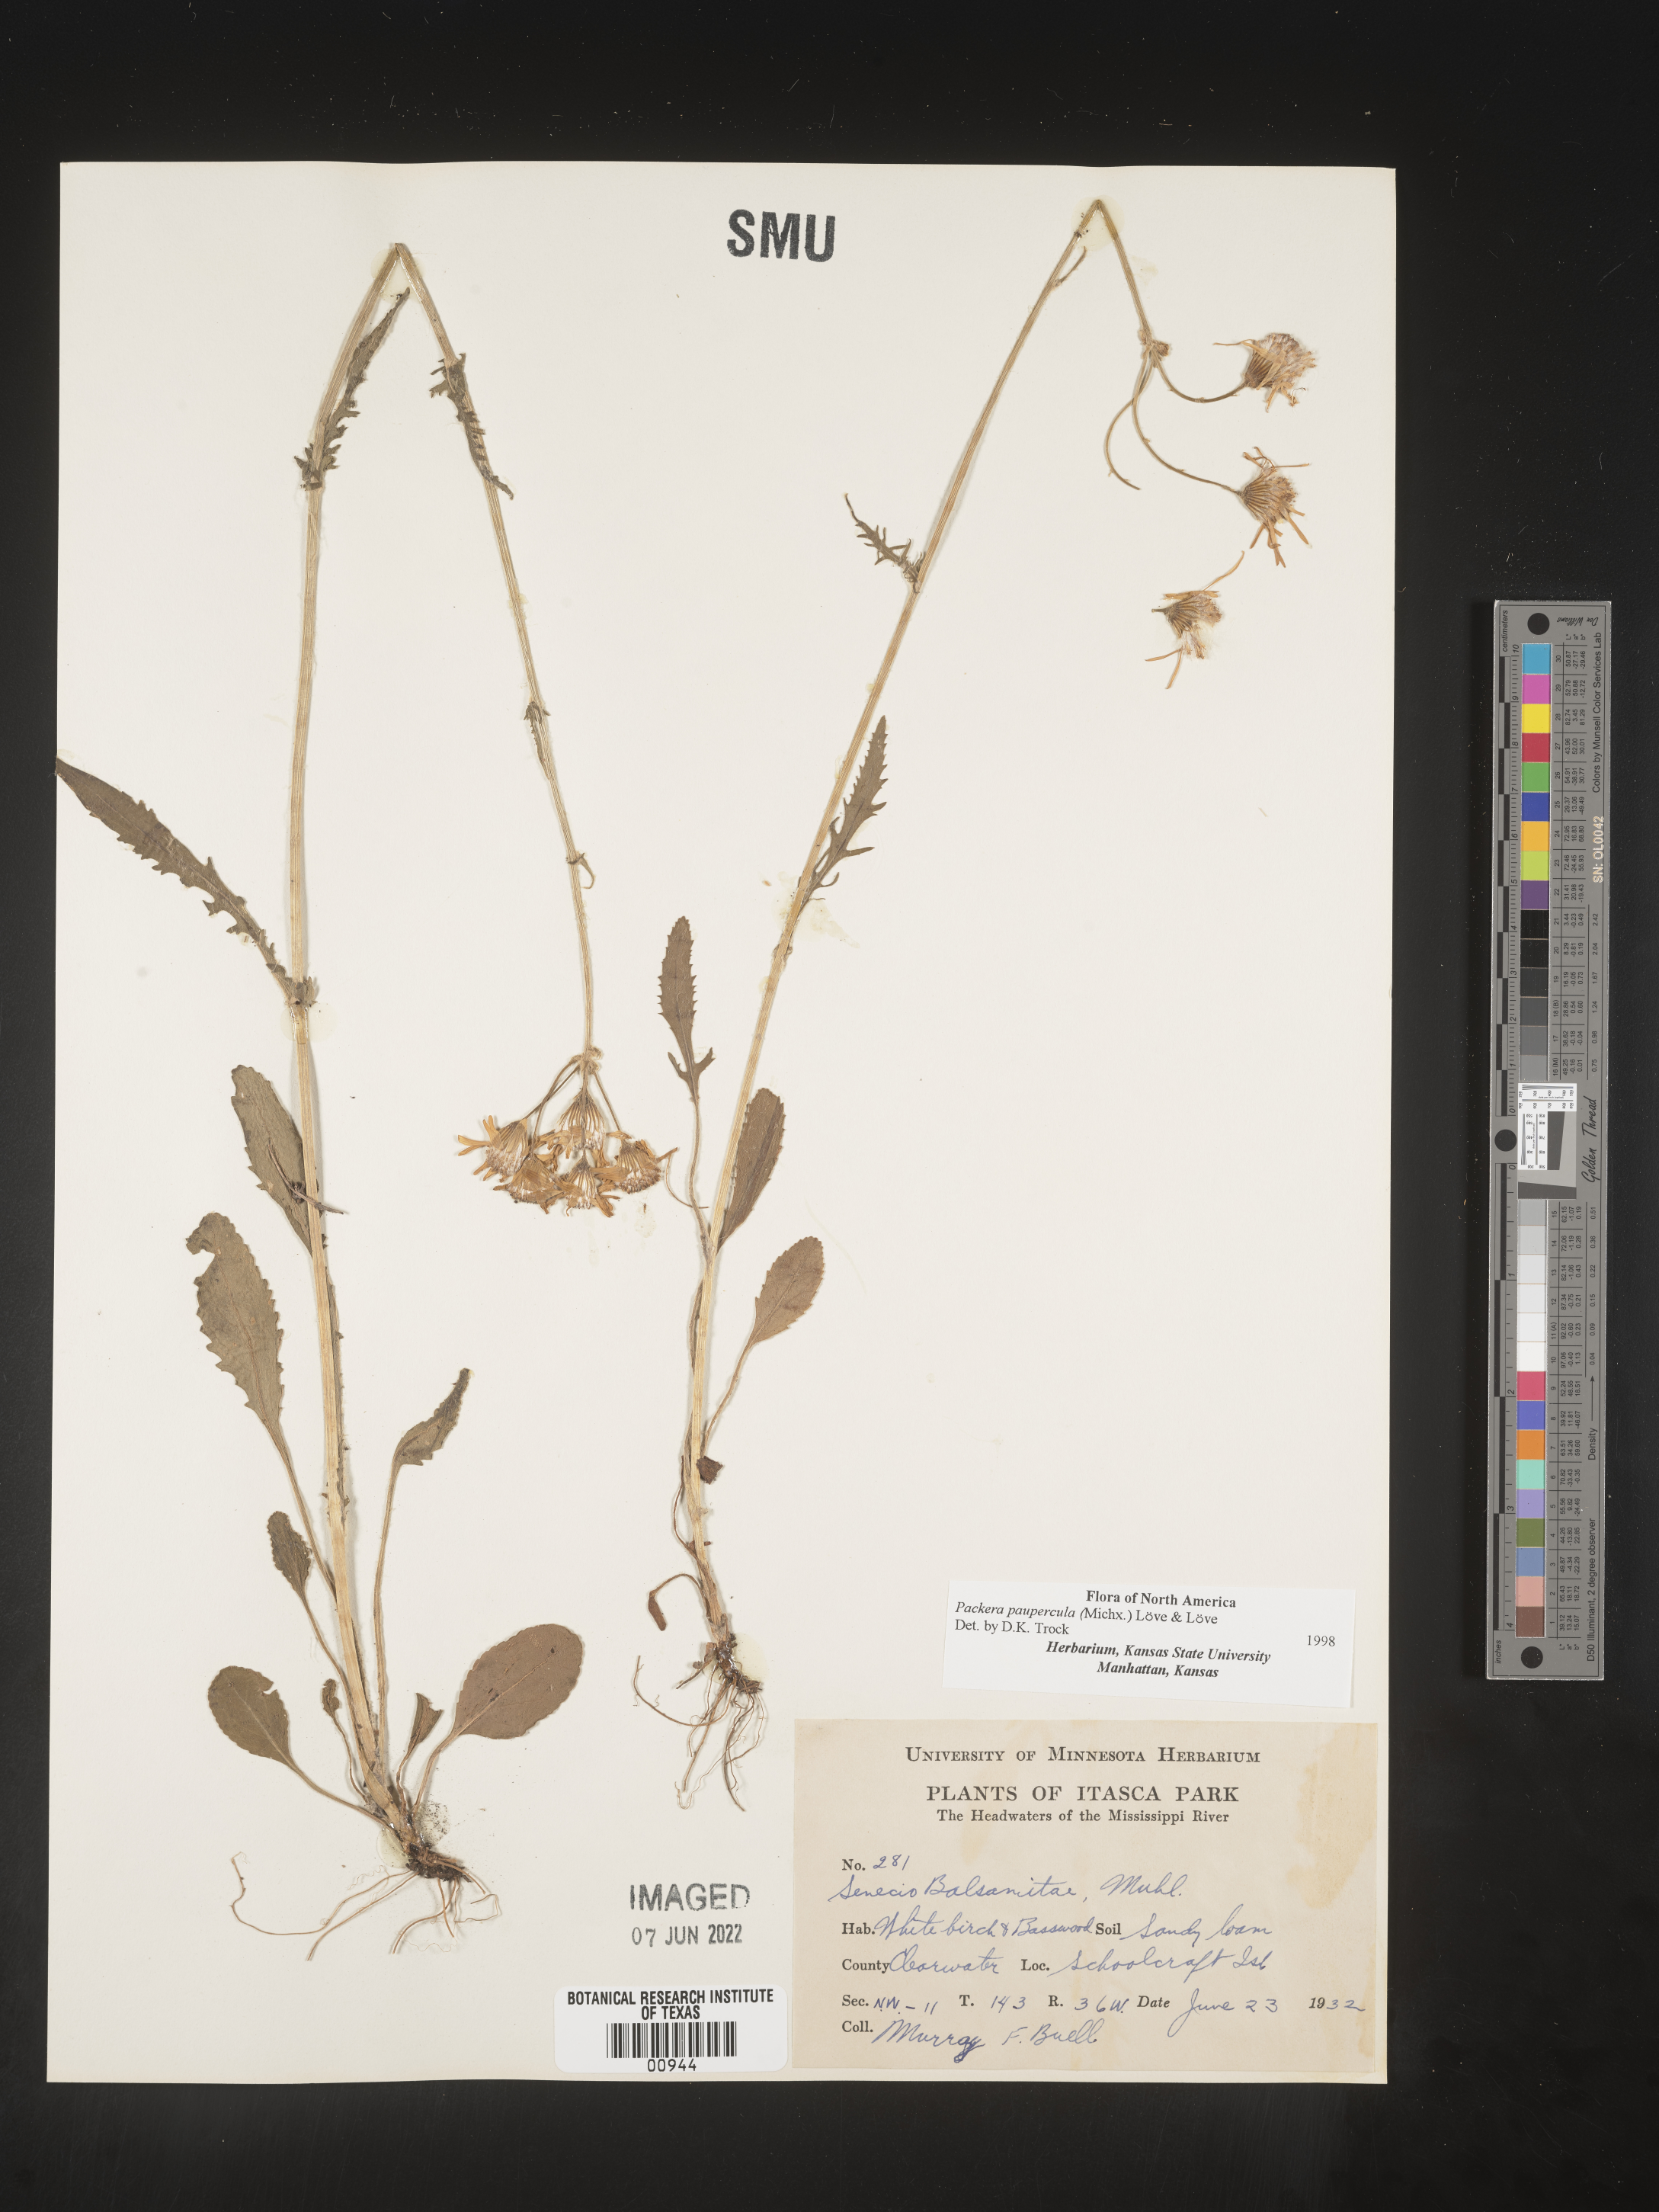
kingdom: Plantae
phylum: Tracheophyta
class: Magnoliopsida
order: Asterales
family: Asteraceae
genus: Packera
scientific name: Packera paupercula
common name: Balsam groundsel
